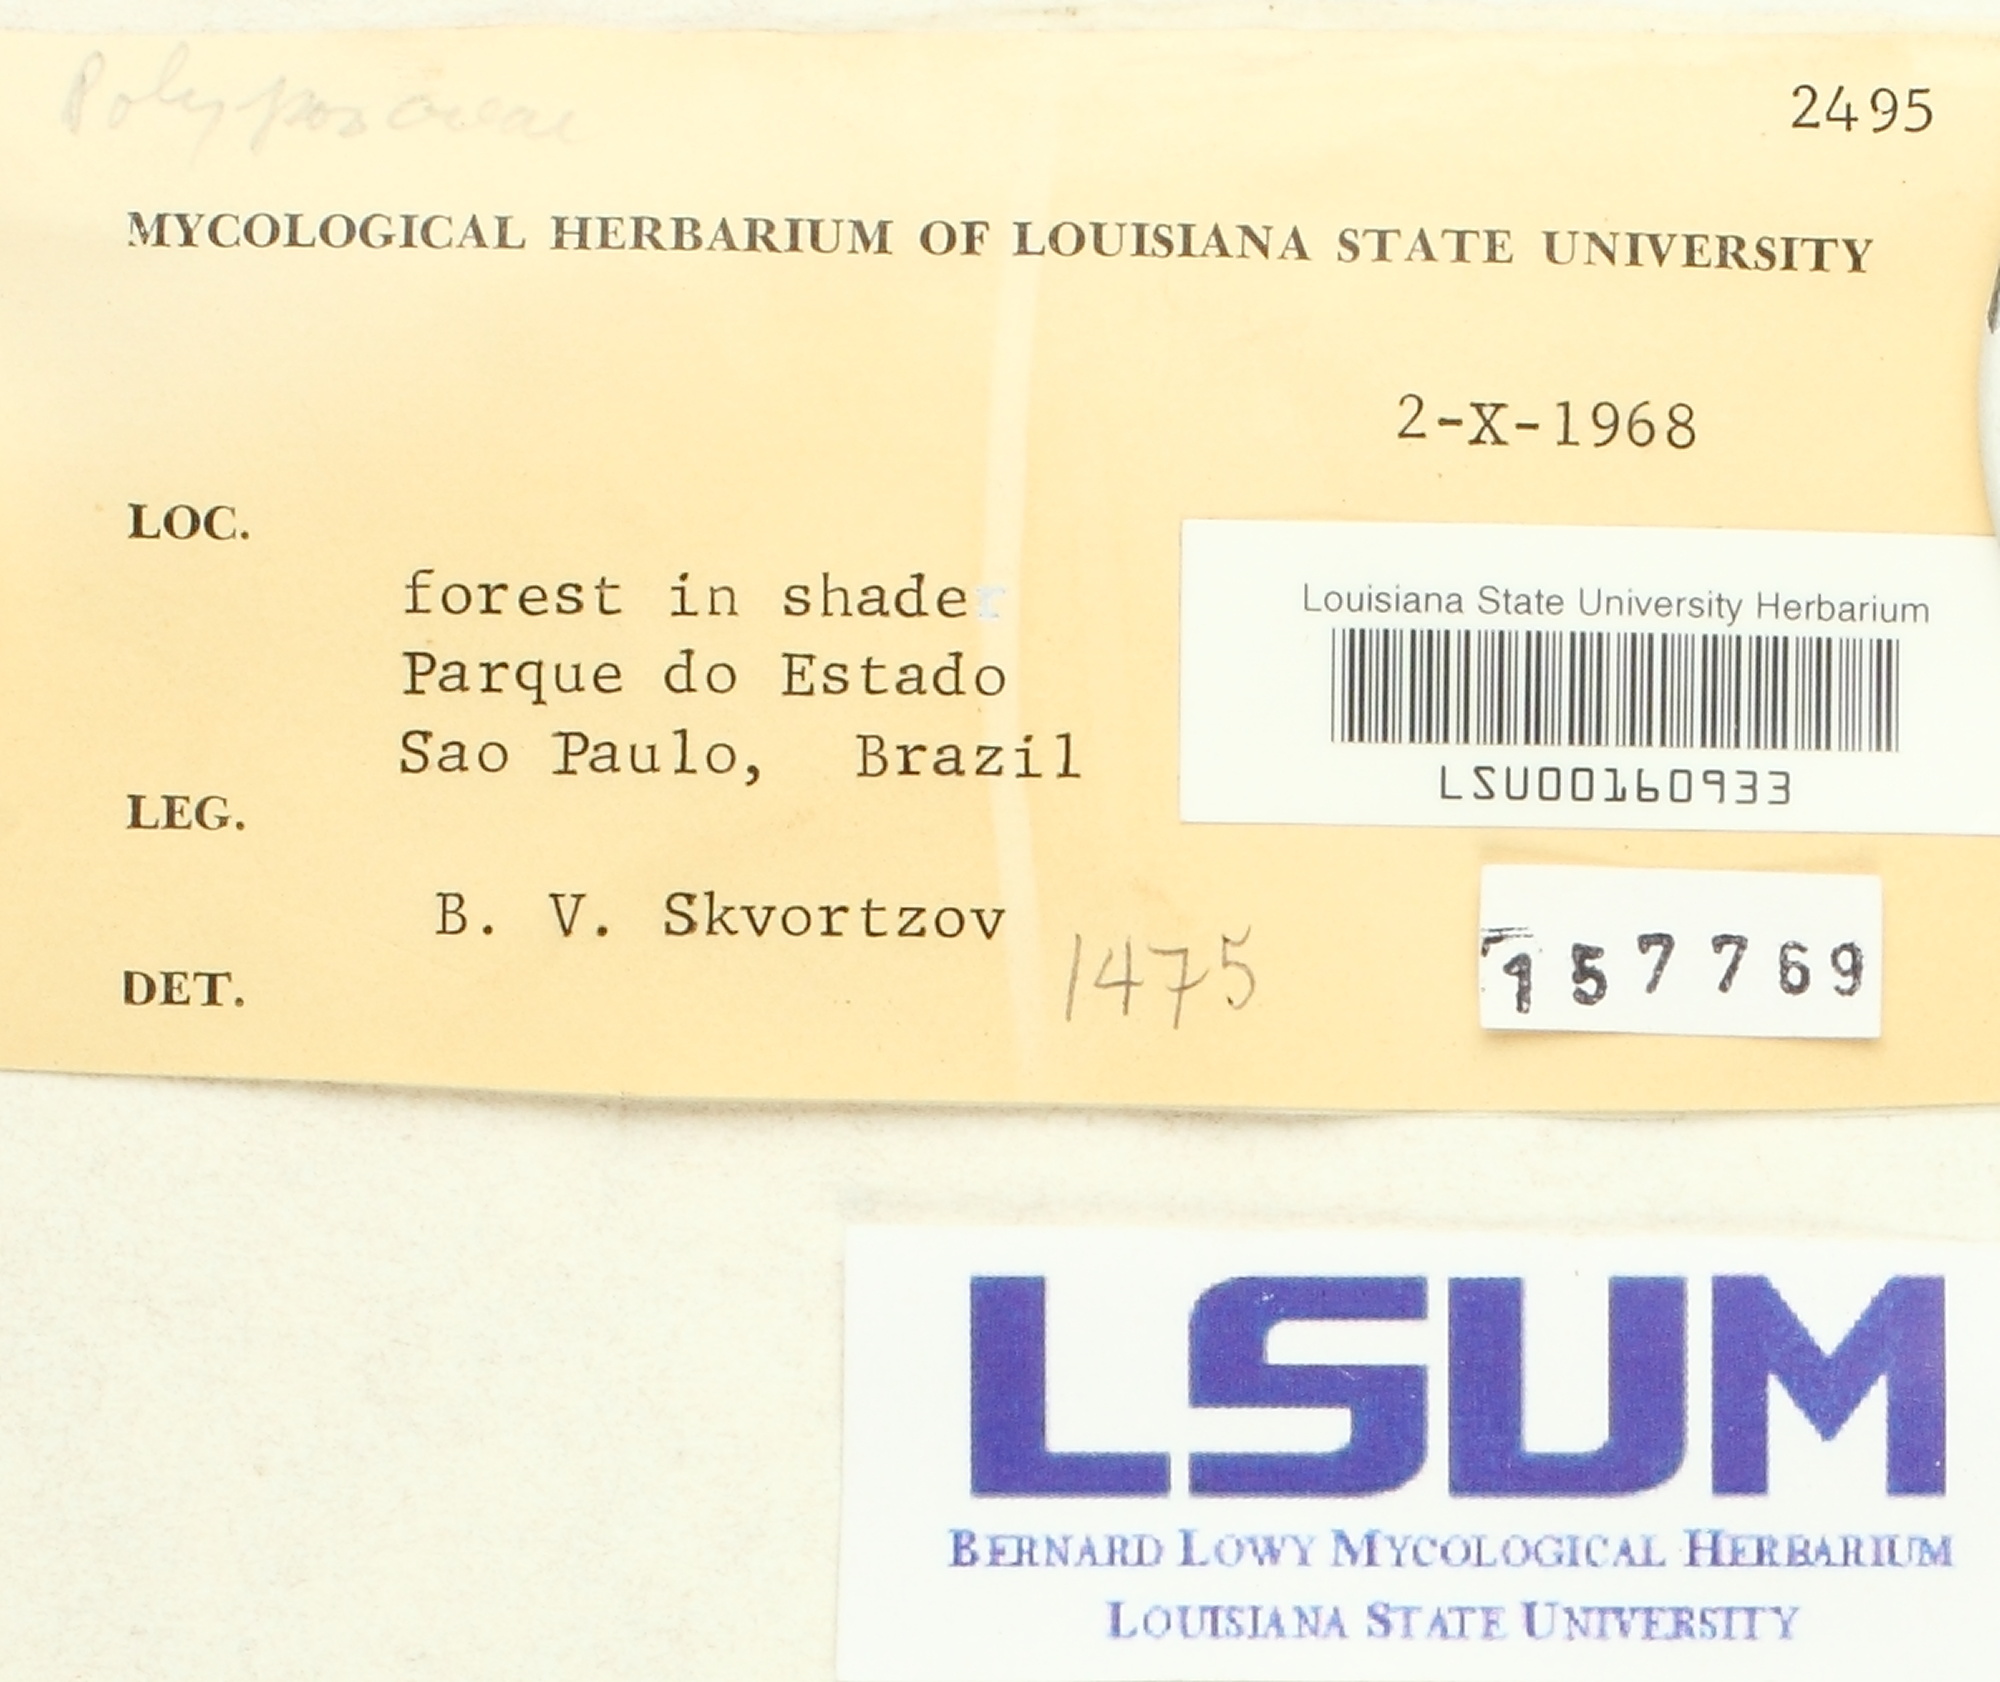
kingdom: Fungi
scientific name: Fungi
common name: Fungi
